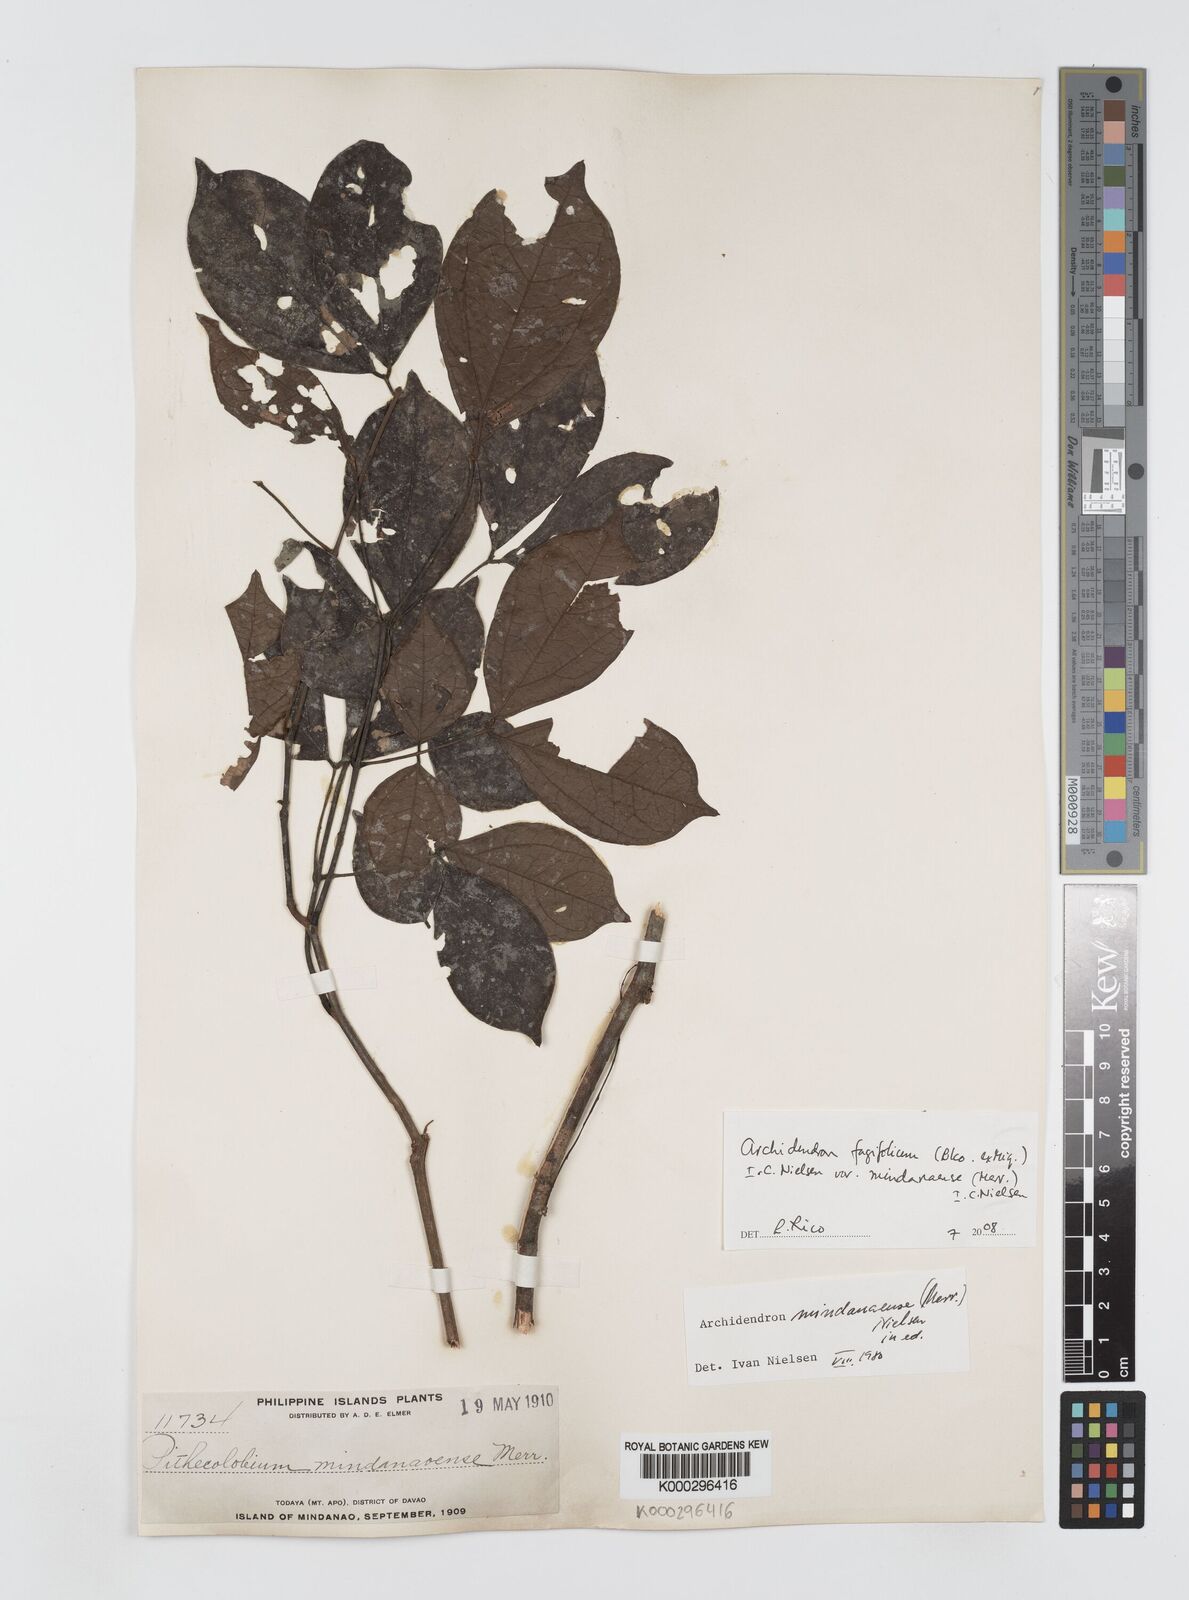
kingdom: Plantae
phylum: Tracheophyta
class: Magnoliopsida
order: Fabales
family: Fabaceae
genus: Archidendron
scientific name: Archidendron fagifolium
